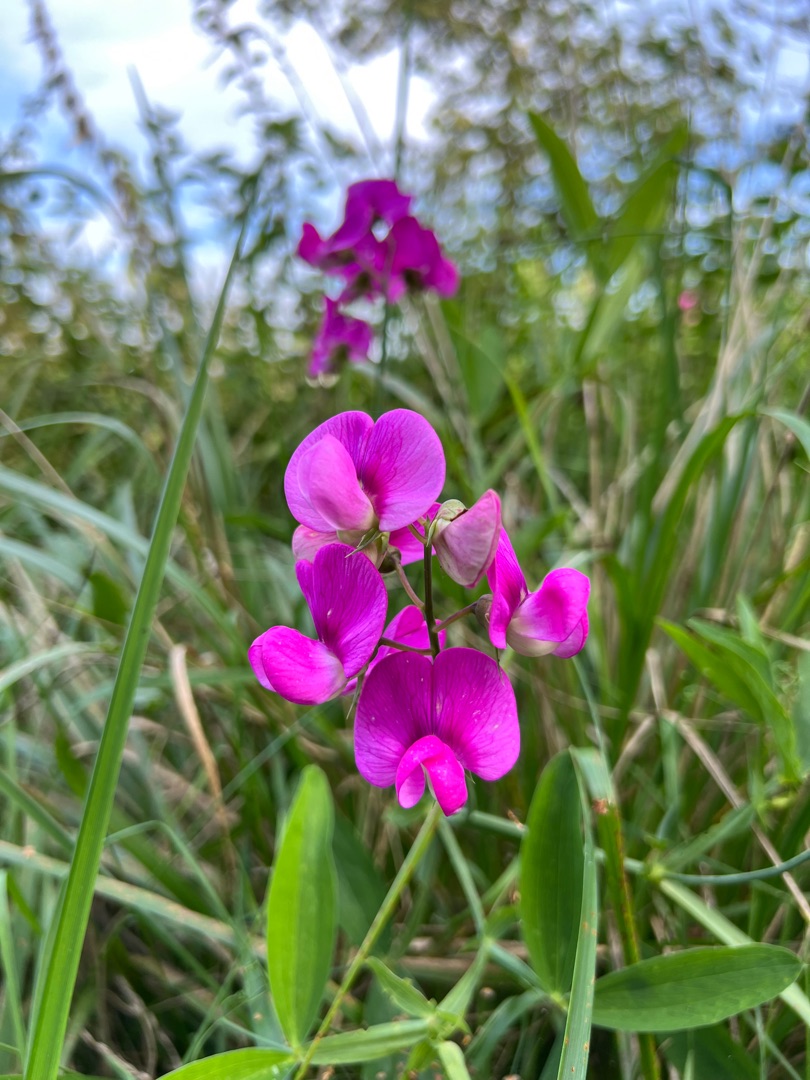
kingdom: Plantae
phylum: Tracheophyta
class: Magnoliopsida
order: Fabales
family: Fabaceae
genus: Lathyrus
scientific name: Lathyrus latifolius
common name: Flerårig ærteblomst
